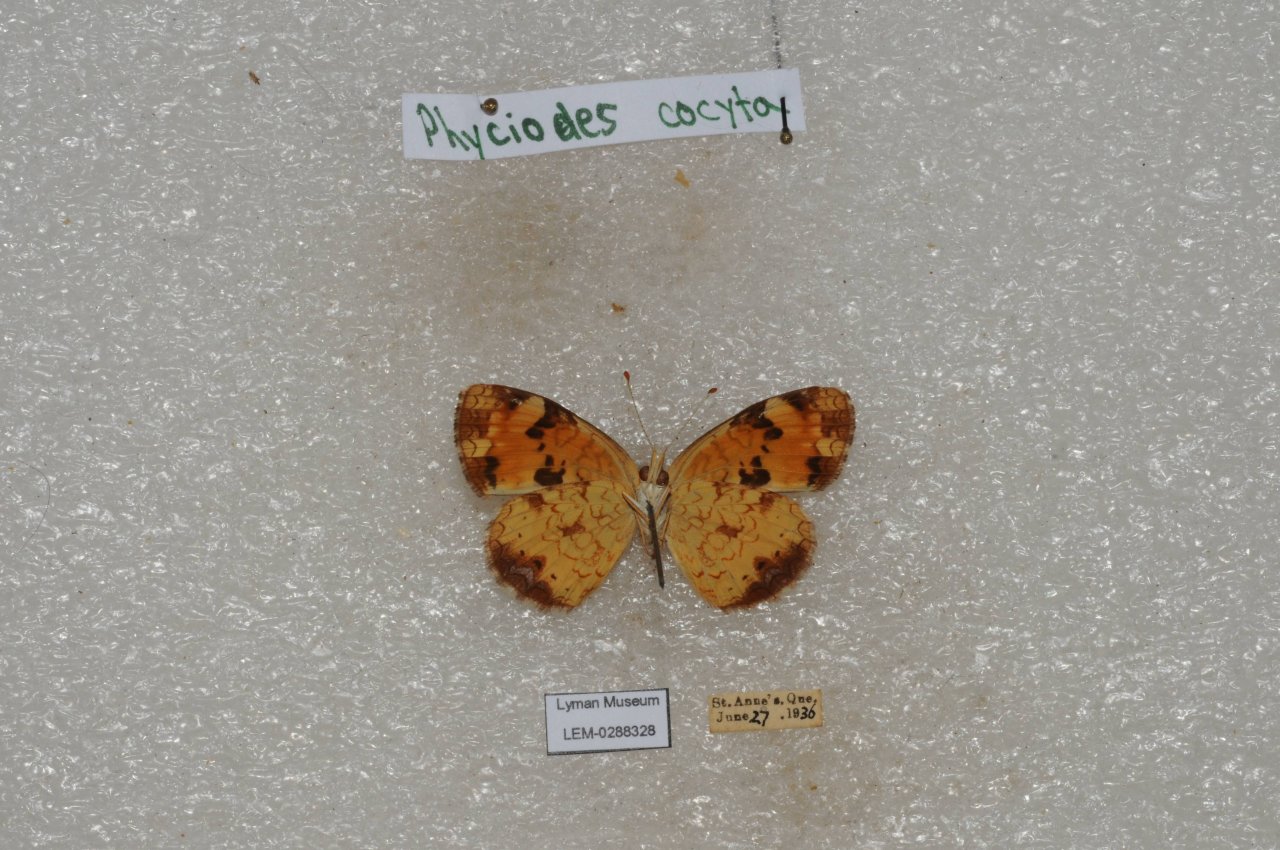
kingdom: Animalia
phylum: Arthropoda
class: Insecta
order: Lepidoptera
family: Nymphalidae
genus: Phyciodes
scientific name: Phyciodes tharos
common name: Northern Crescent
